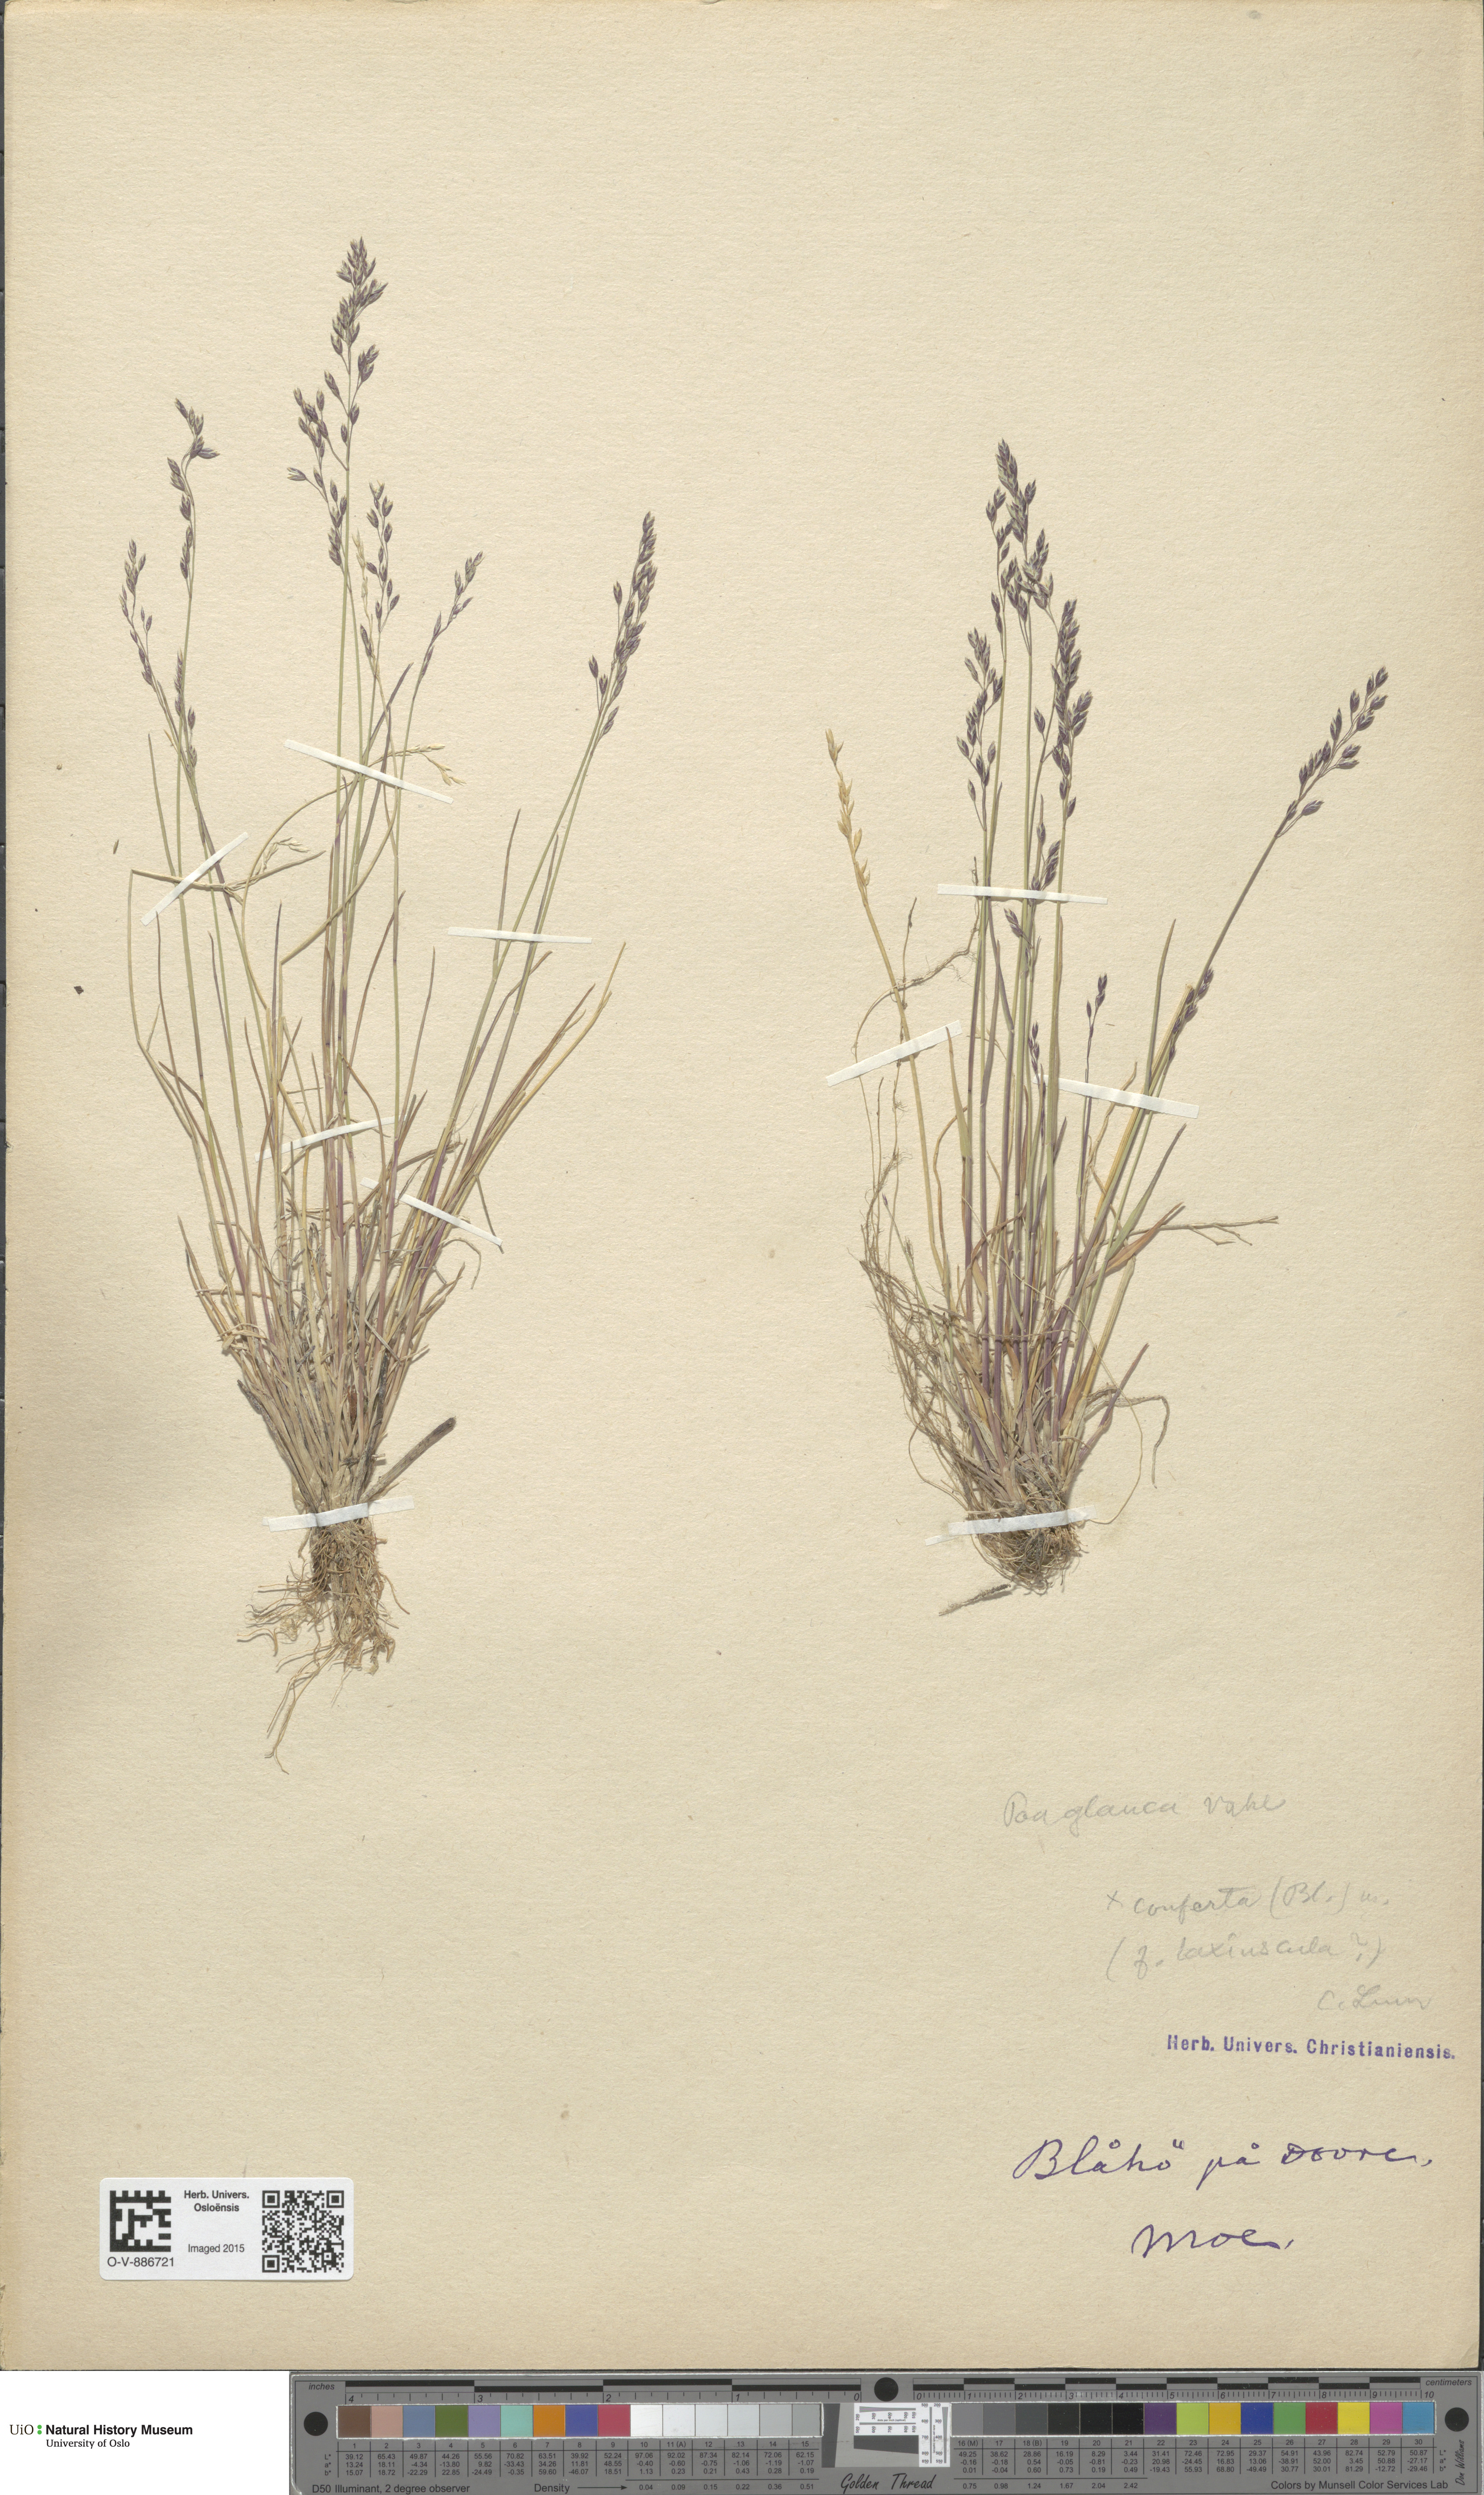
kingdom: Plantae
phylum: Tracheophyta
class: Liliopsida
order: Poales
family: Poaceae
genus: Poa
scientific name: Poa glauca
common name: Glaucous bluegrass
